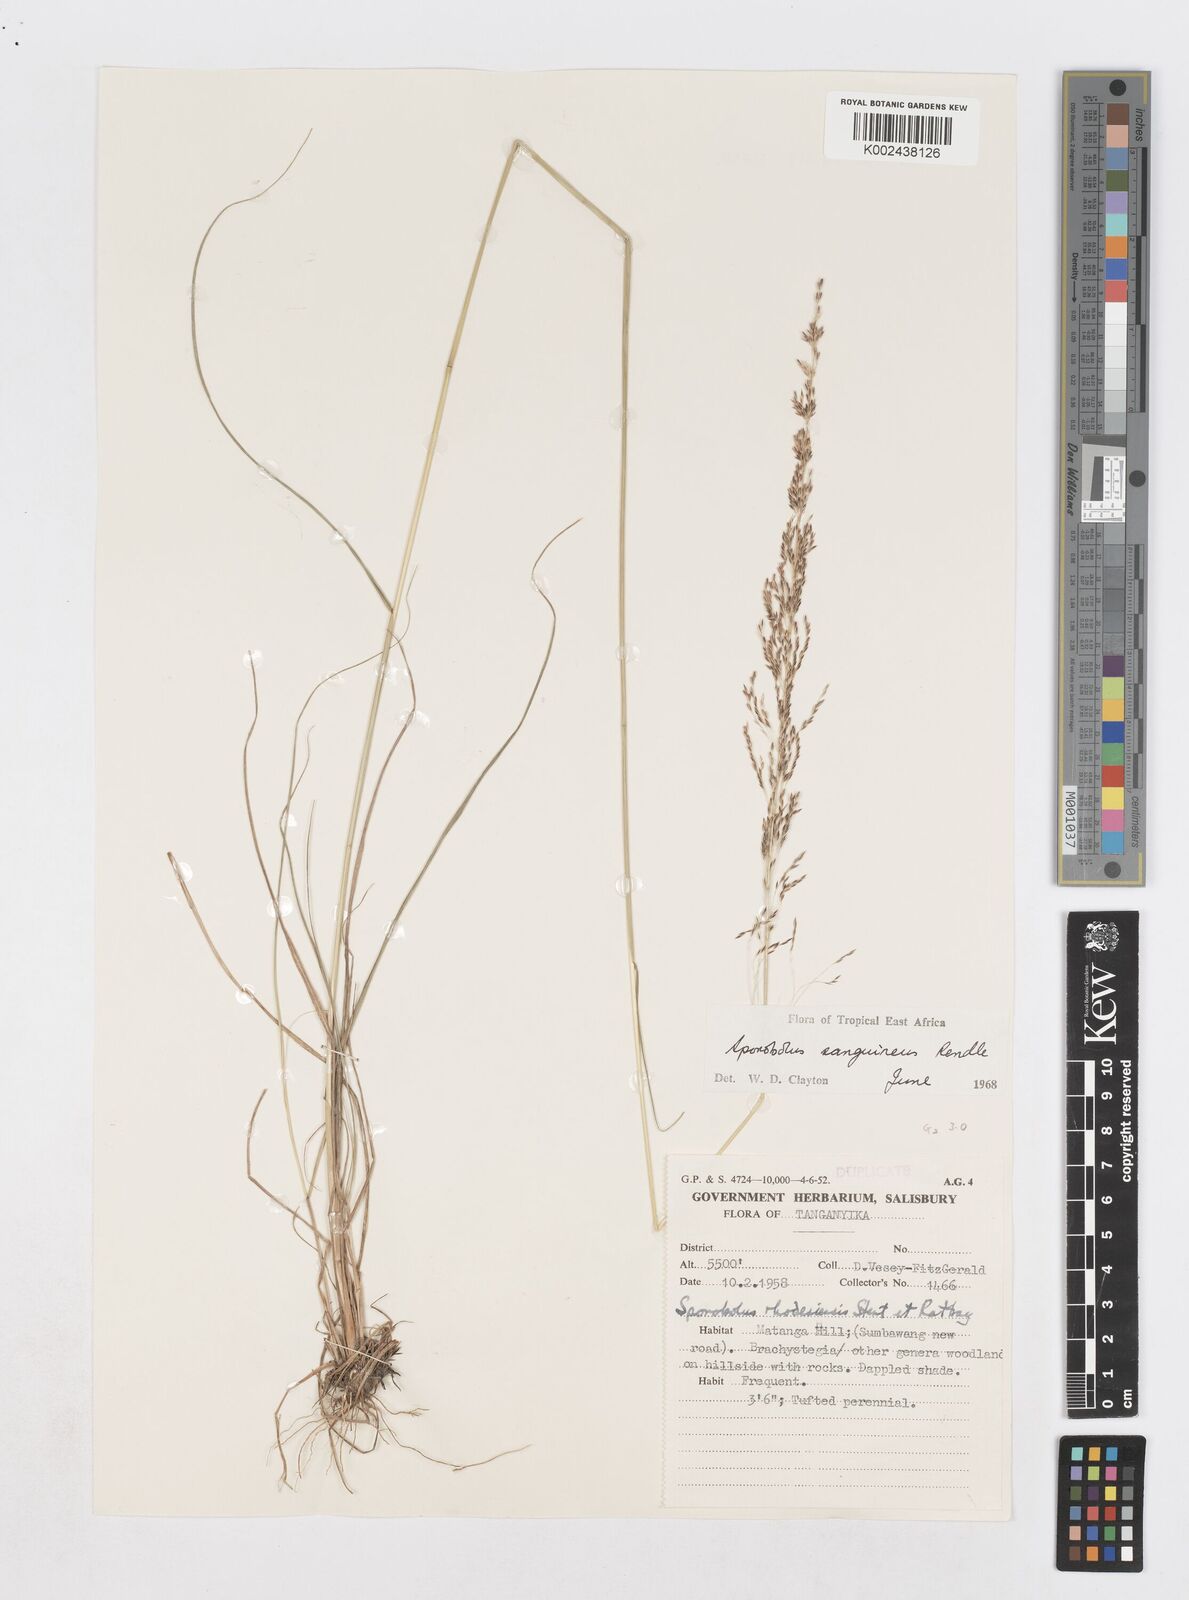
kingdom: Plantae
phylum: Tracheophyta
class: Liliopsida
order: Poales
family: Poaceae
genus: Sporobolus
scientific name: Sporobolus sanguineus
